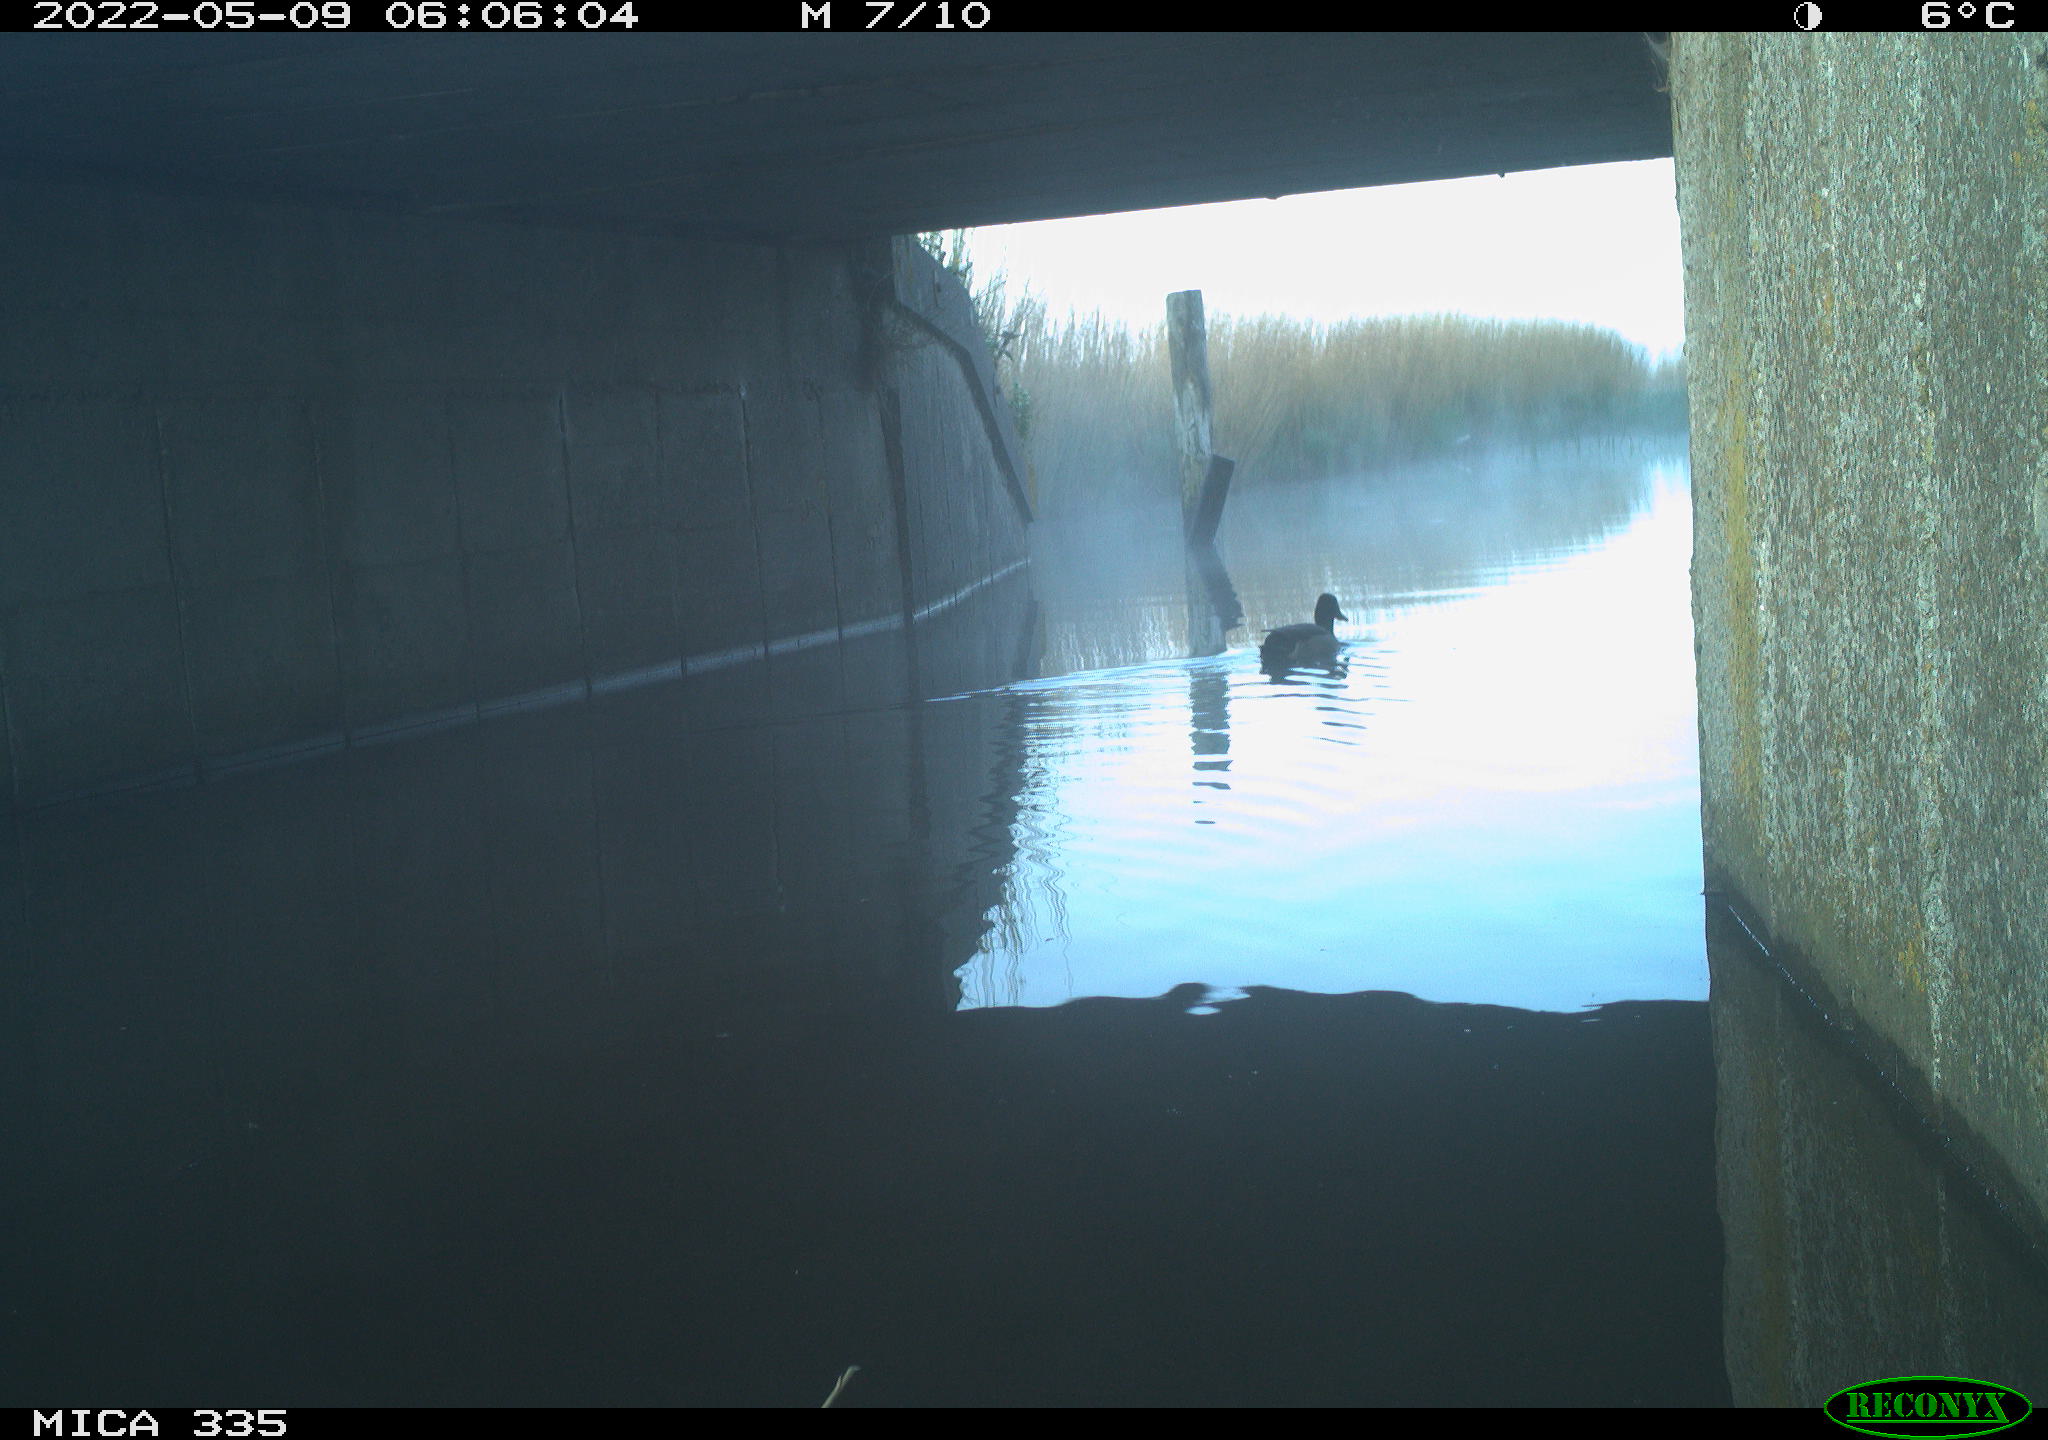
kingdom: Animalia
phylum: Chordata
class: Aves
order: Anseriformes
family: Anatidae
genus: Anas
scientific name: Anas platyrhynchos
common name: Mallard
